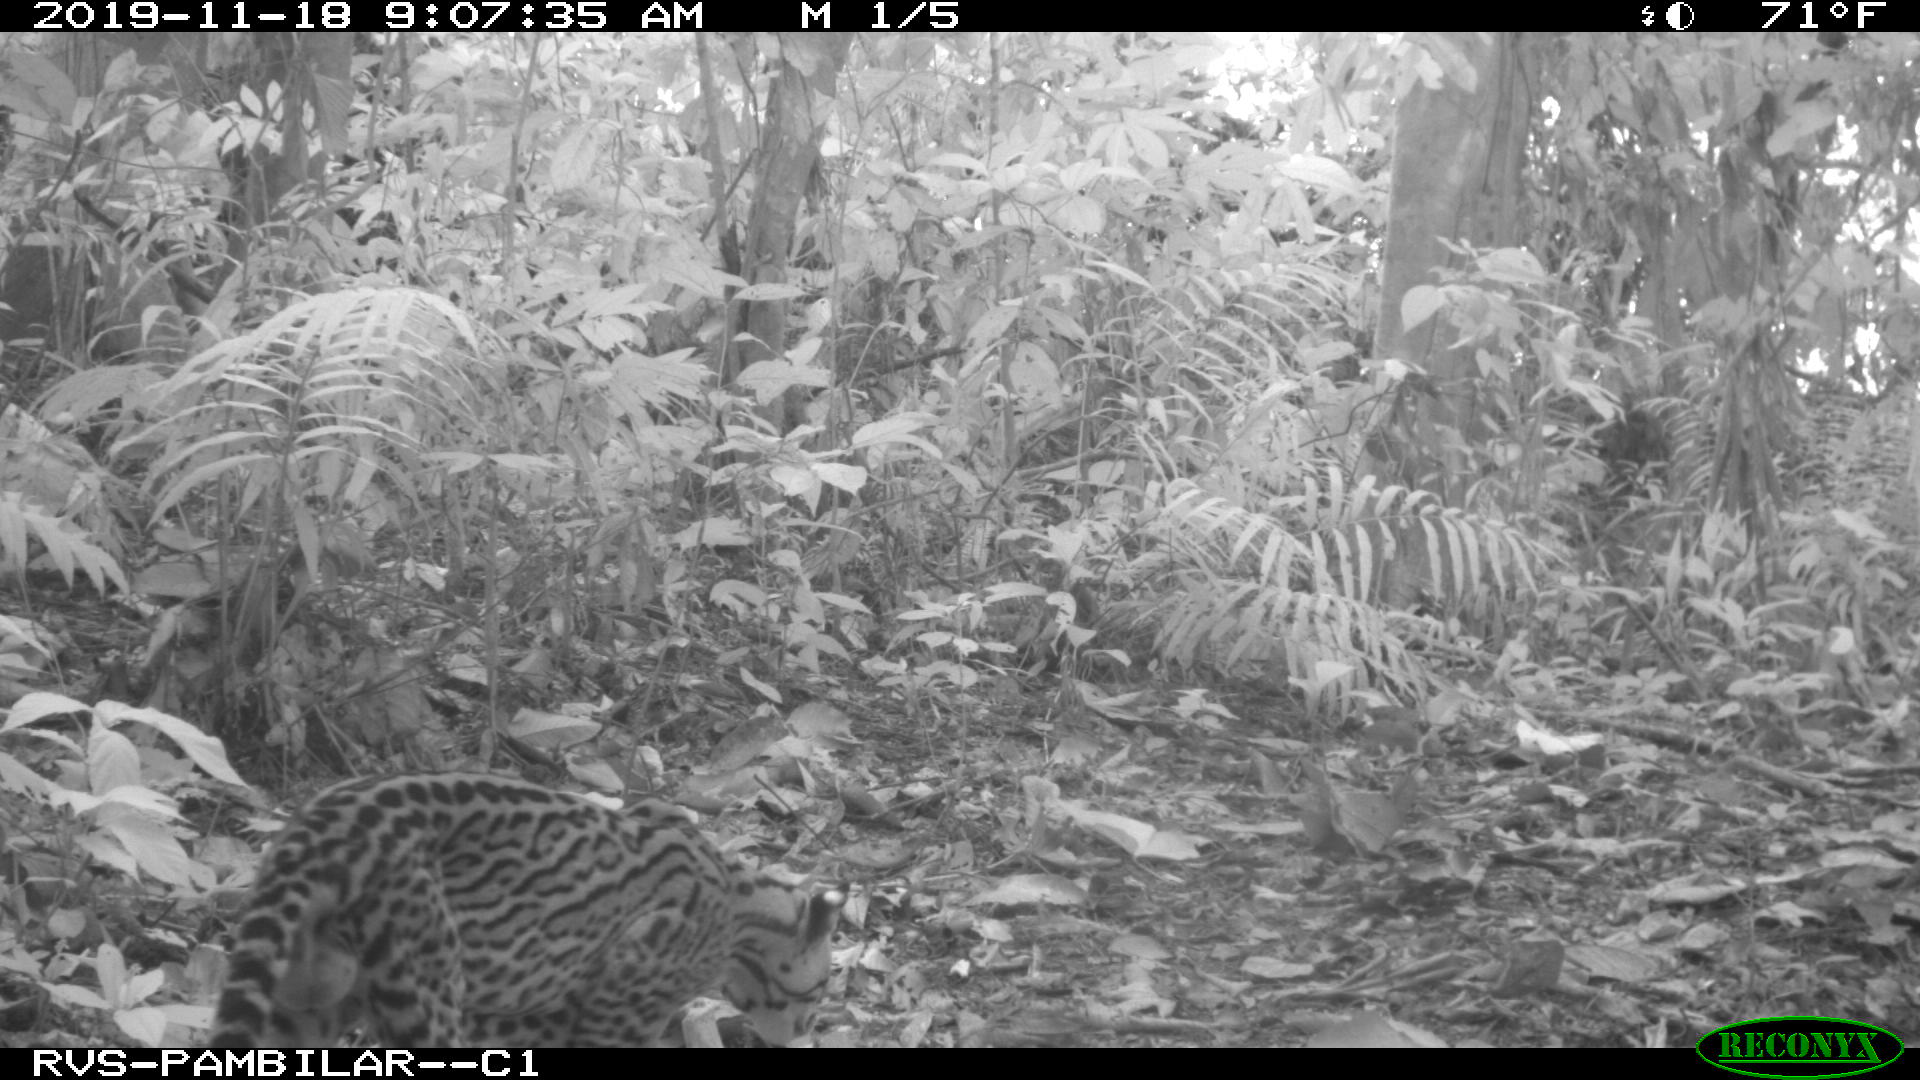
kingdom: Animalia
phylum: Chordata
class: Mammalia
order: Carnivora
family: Felidae
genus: Leopardus
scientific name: Leopardus pardalis
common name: Ocelot
